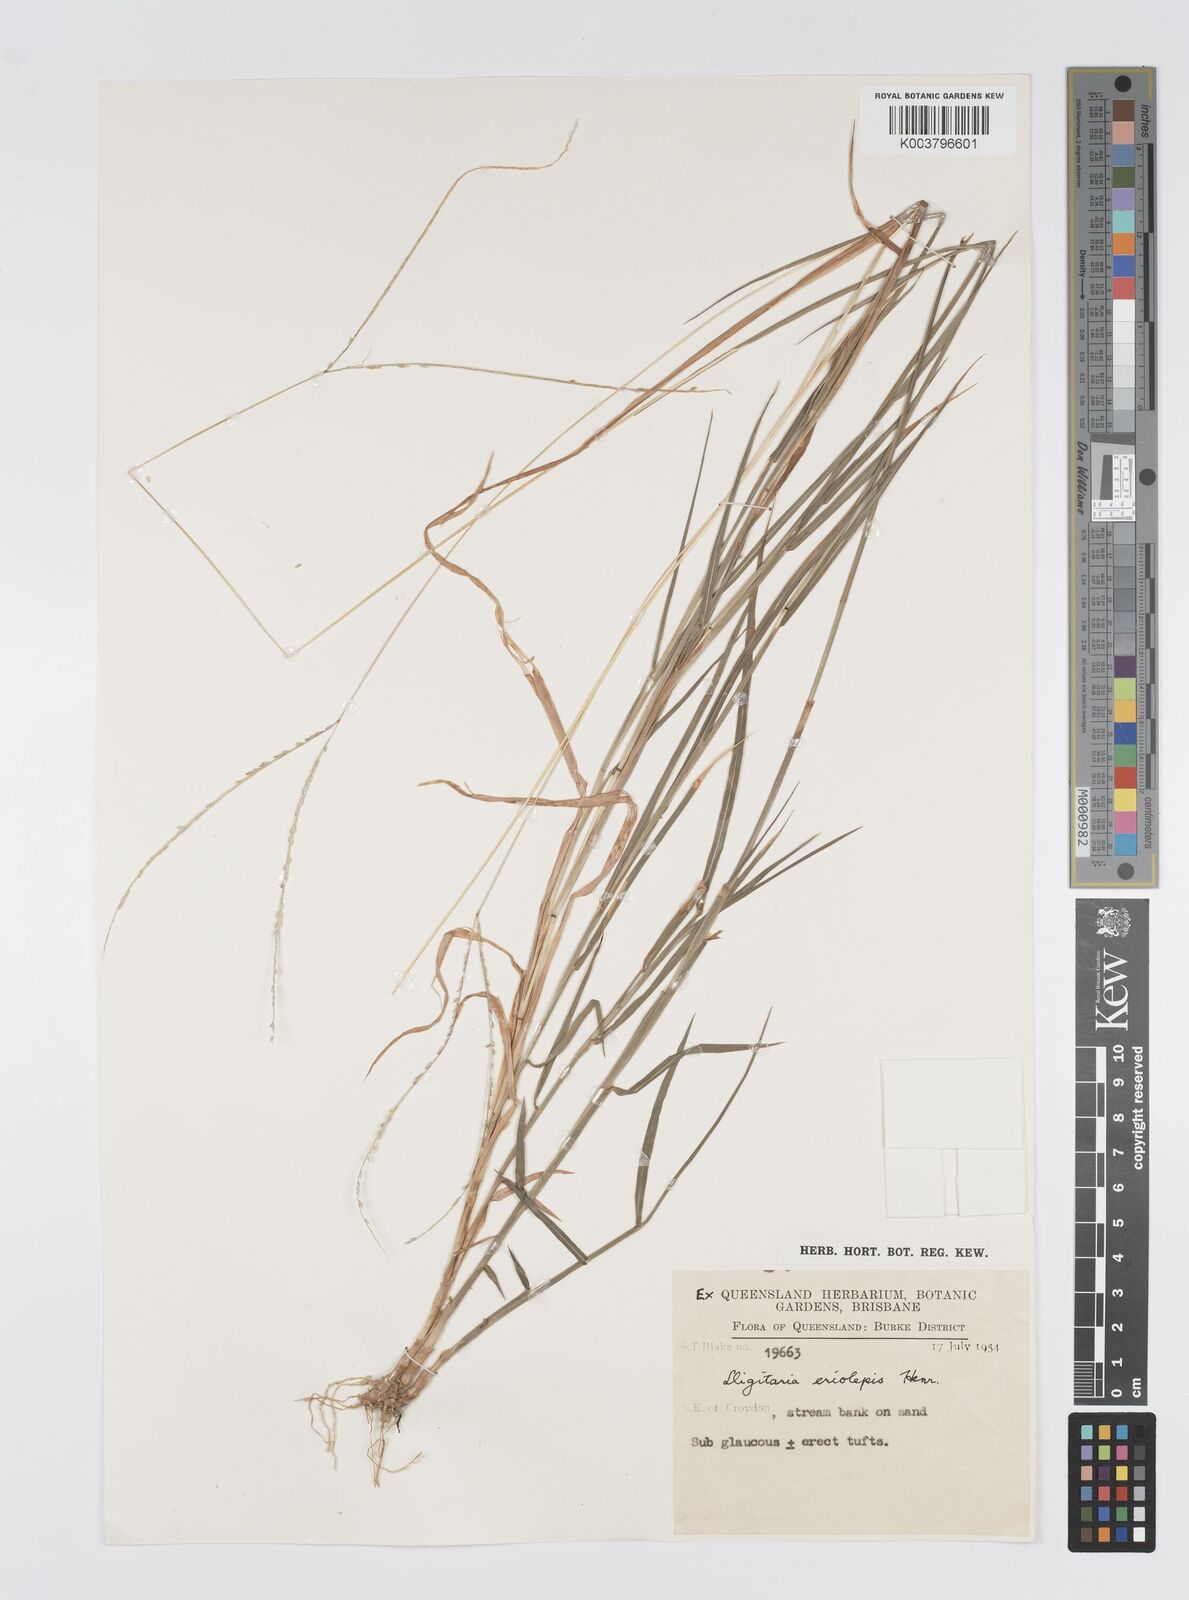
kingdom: Plantae
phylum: Tracheophyta
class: Liliopsida
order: Poales
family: Poaceae
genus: Digitaria
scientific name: Digitaria parviflora
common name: Small-flower finger grass
